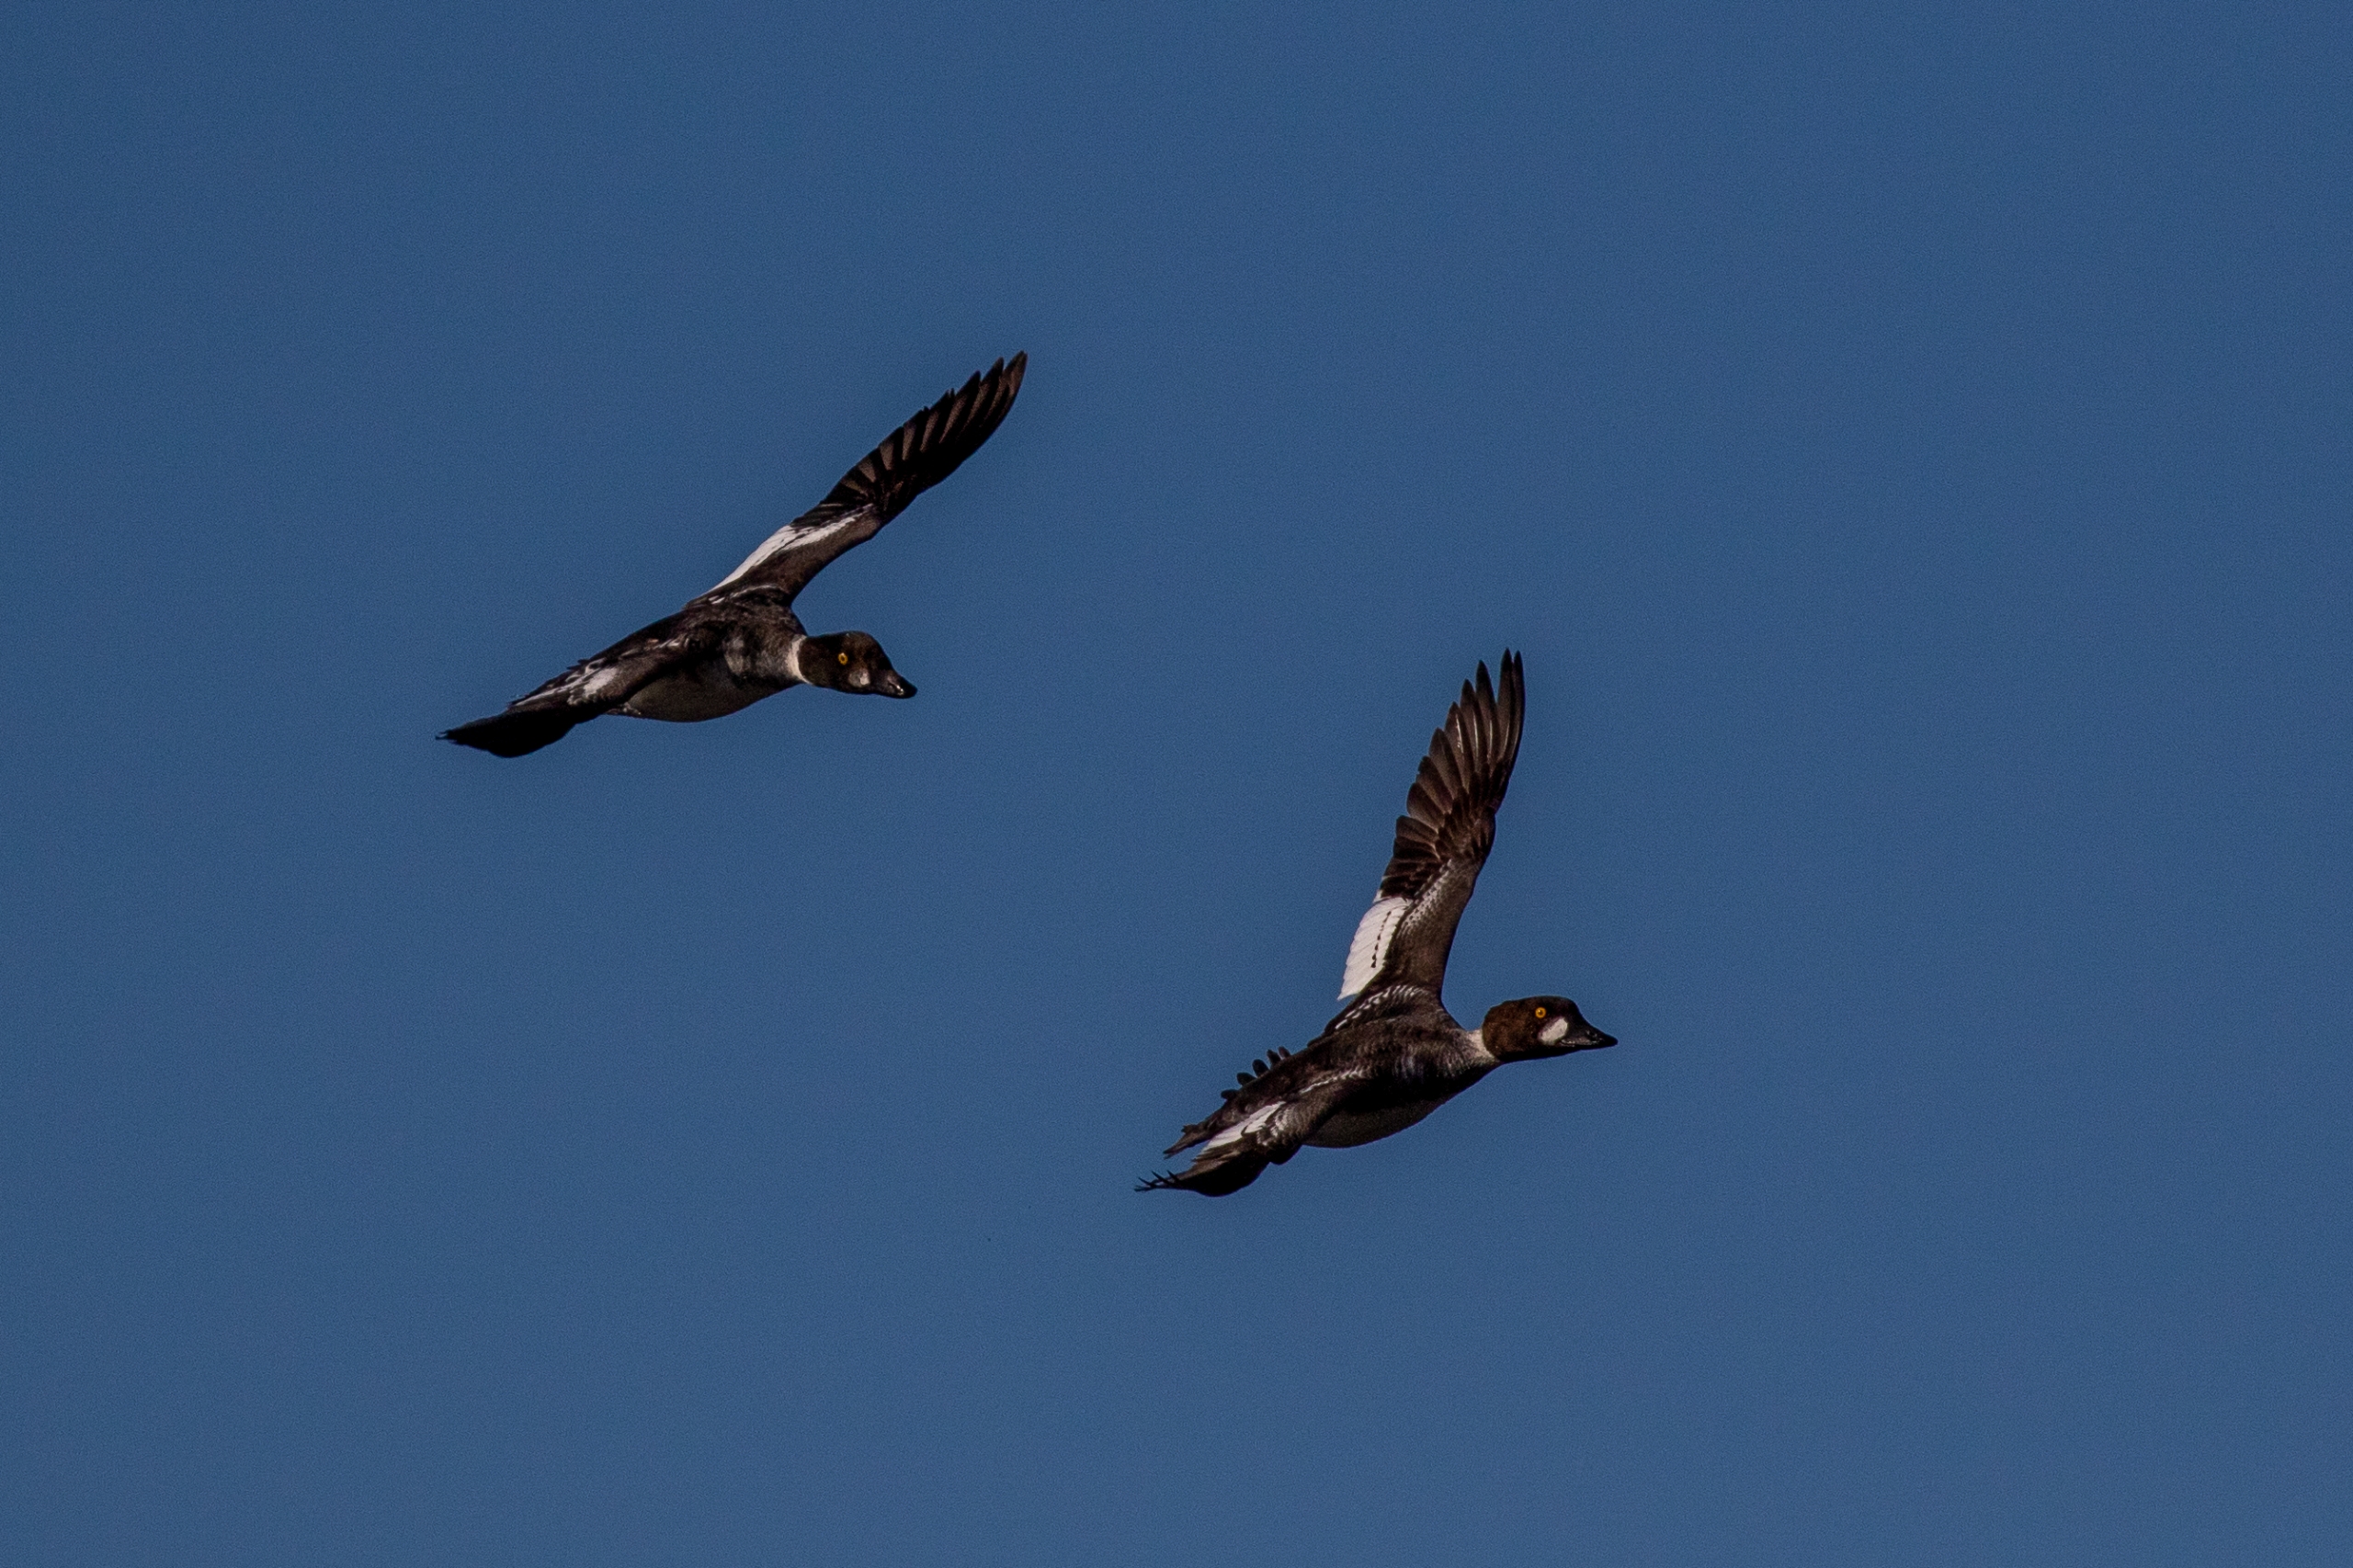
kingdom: Animalia
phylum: Chordata
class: Aves
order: Anseriformes
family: Anatidae
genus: Bucephala
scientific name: Bucephala clangula
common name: Hvinand
